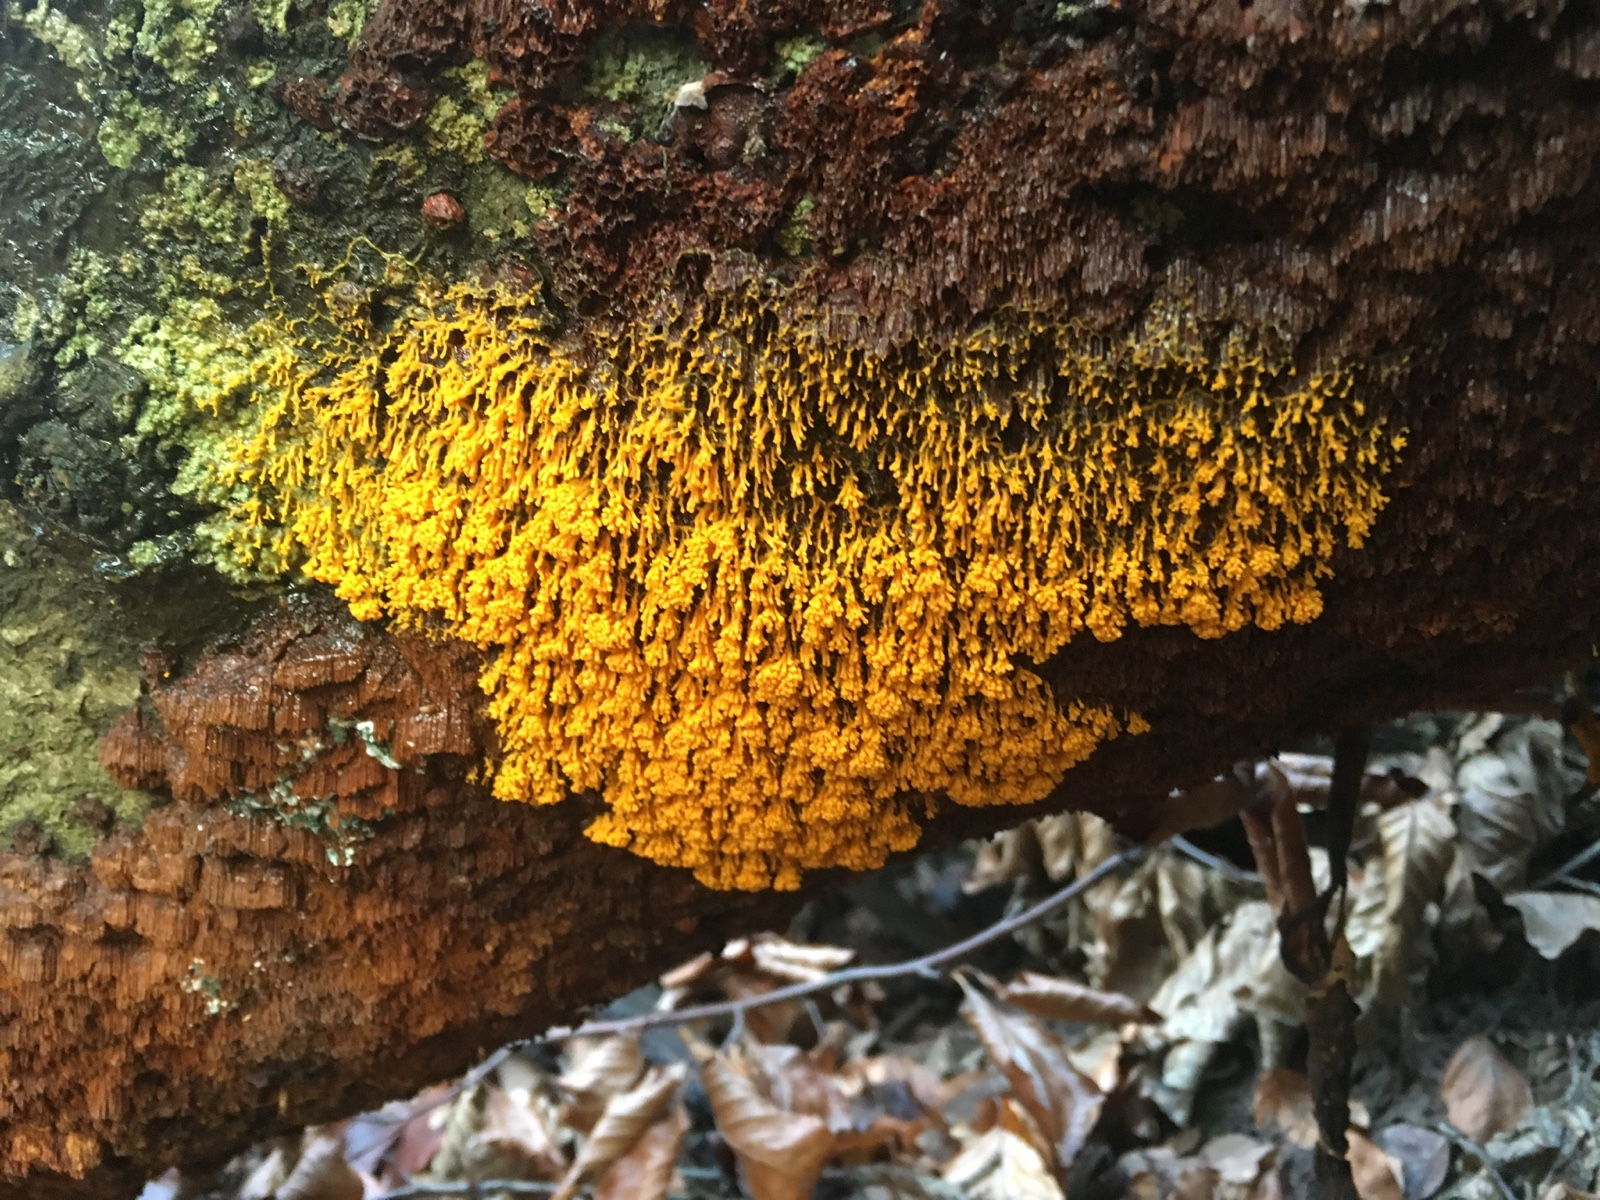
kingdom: Protozoa
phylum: Mycetozoa
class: Myxomycetes
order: Physarales
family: Physaraceae
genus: Badhamia
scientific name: Badhamia utricularis
